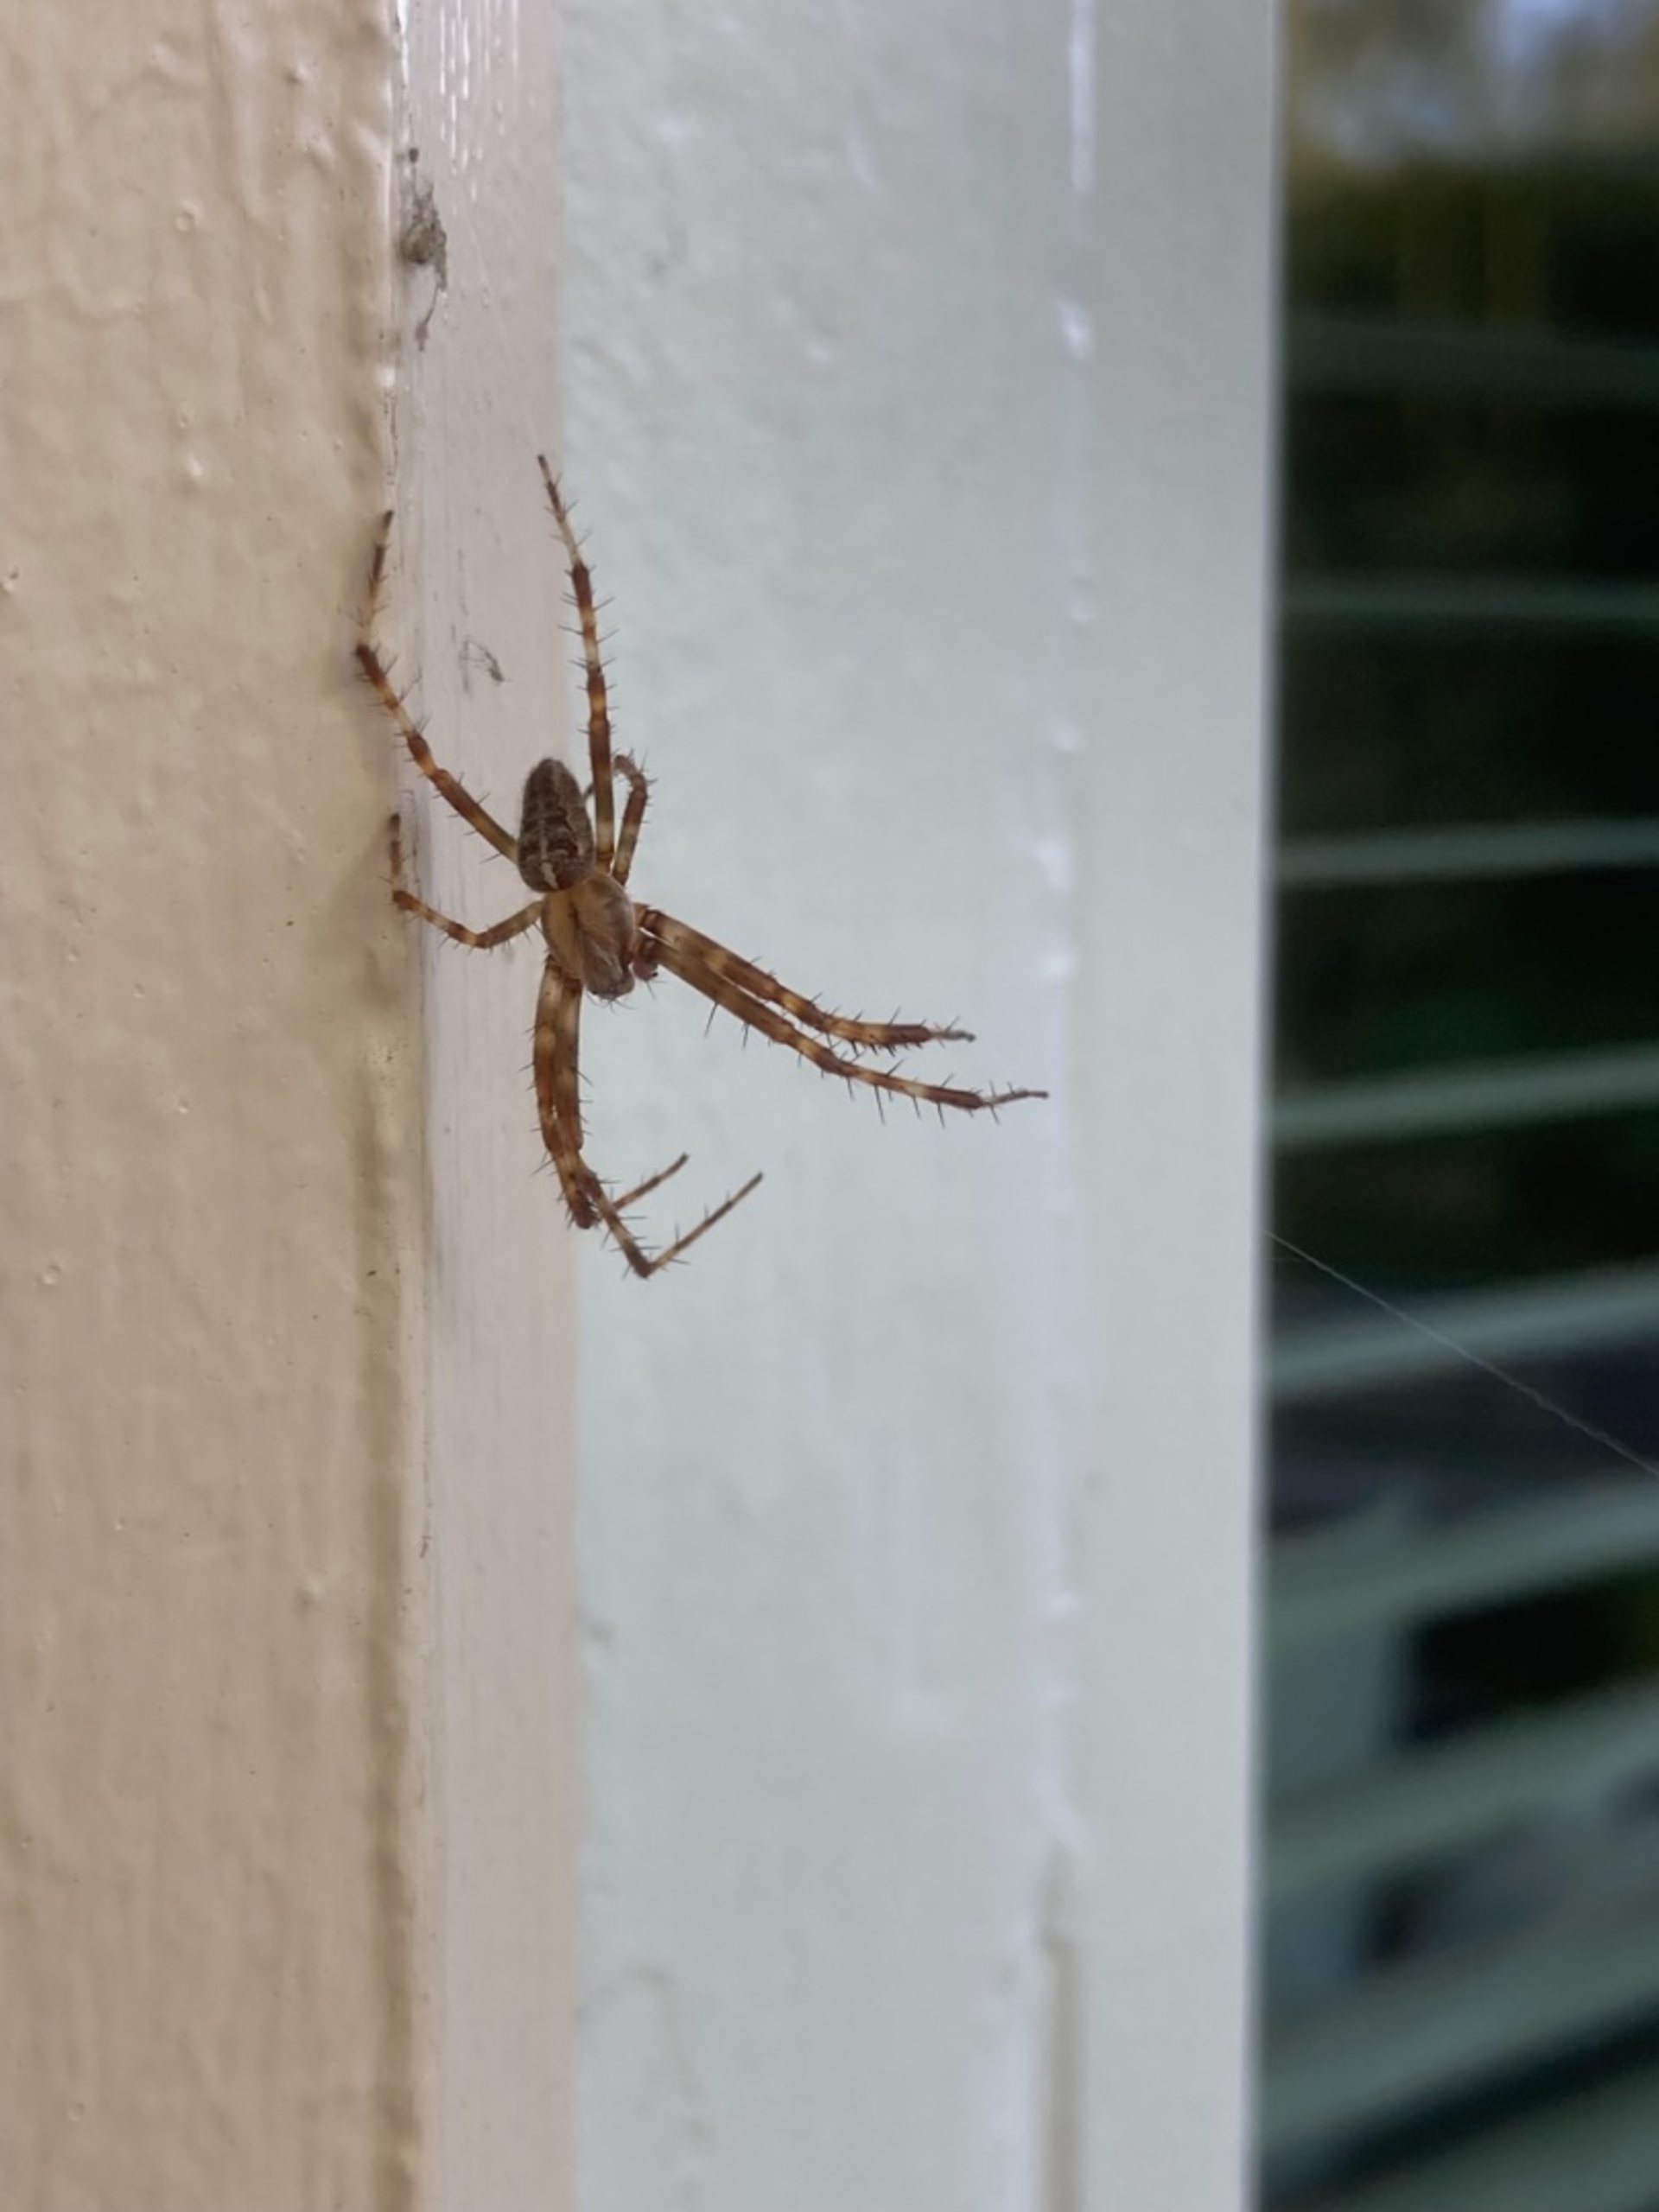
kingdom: Animalia
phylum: Arthropoda
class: Arachnida
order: Araneae
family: Araneidae
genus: Araneus
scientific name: Araneus diadematus
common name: Korsedderkop
